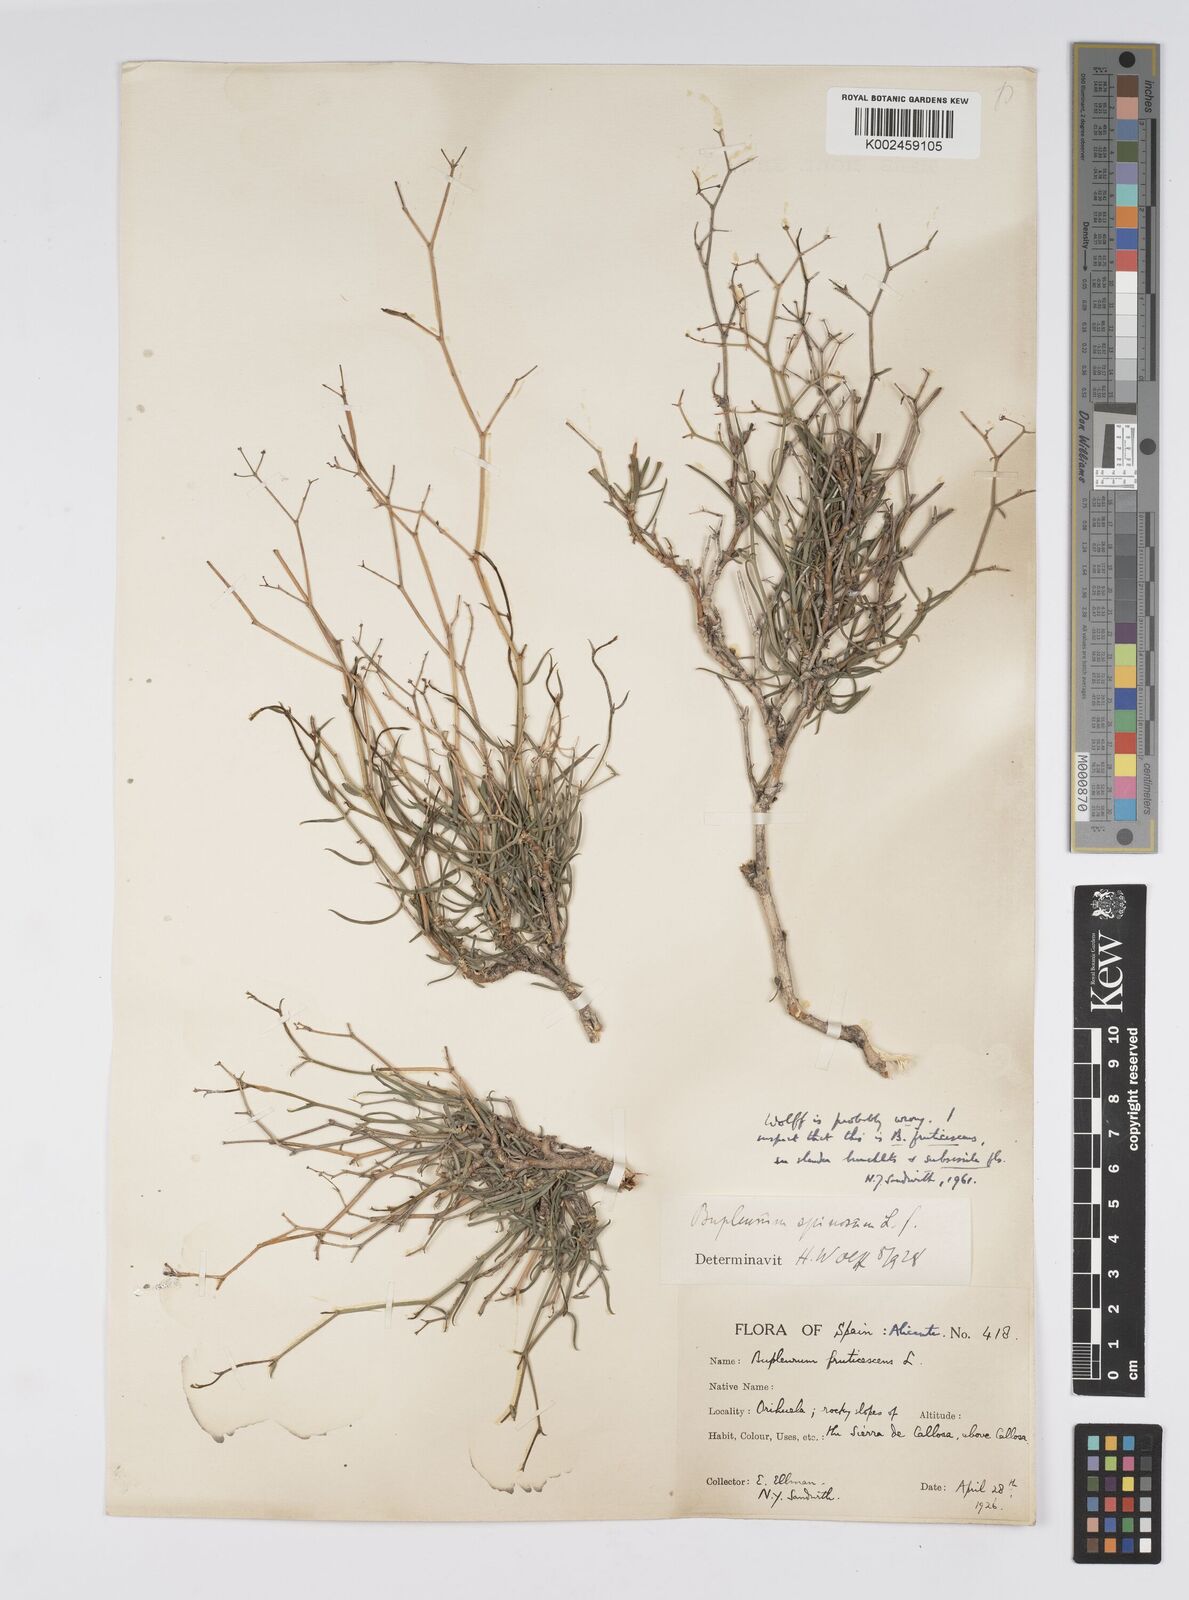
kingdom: Plantae
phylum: Tracheophyta
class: Magnoliopsida
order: Apiales
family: Apiaceae
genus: Bupleurum
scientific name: Bupleurum fruticescens
